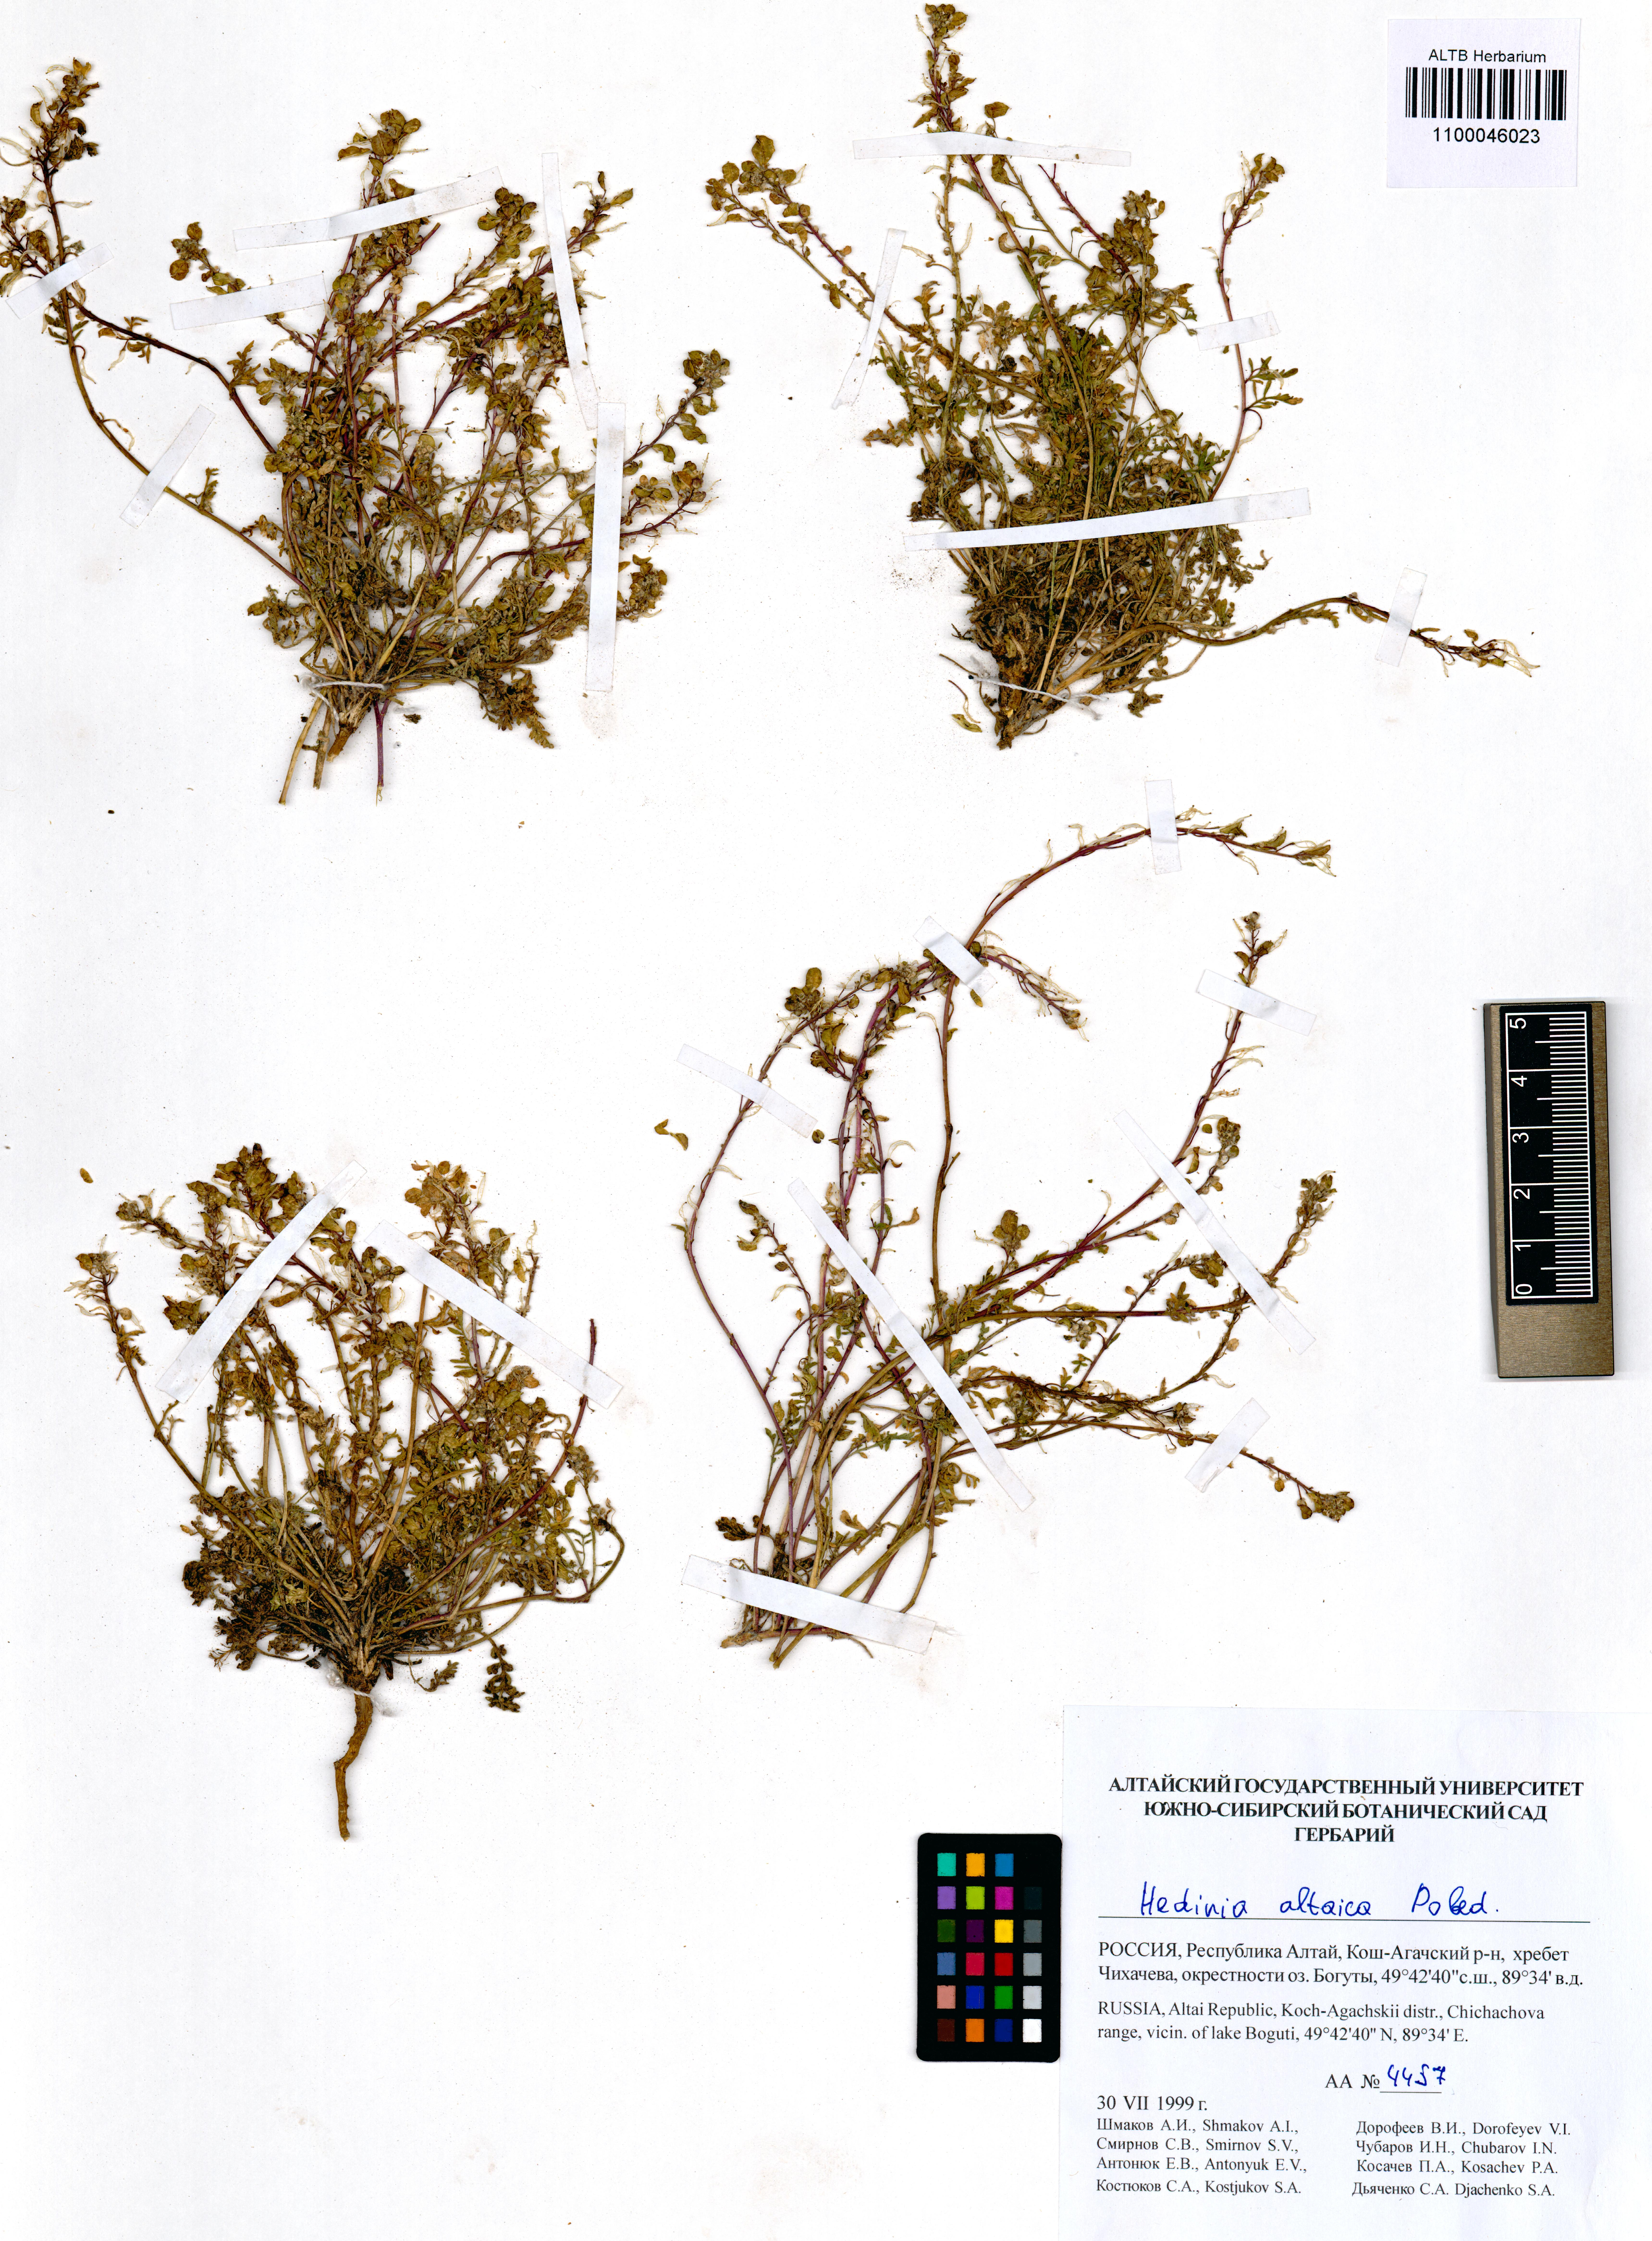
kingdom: Plantae
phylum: Tracheophyta
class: Magnoliopsida
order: Brassicales
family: Brassicaceae
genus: Smelowskia
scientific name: Smelowskia altaica
